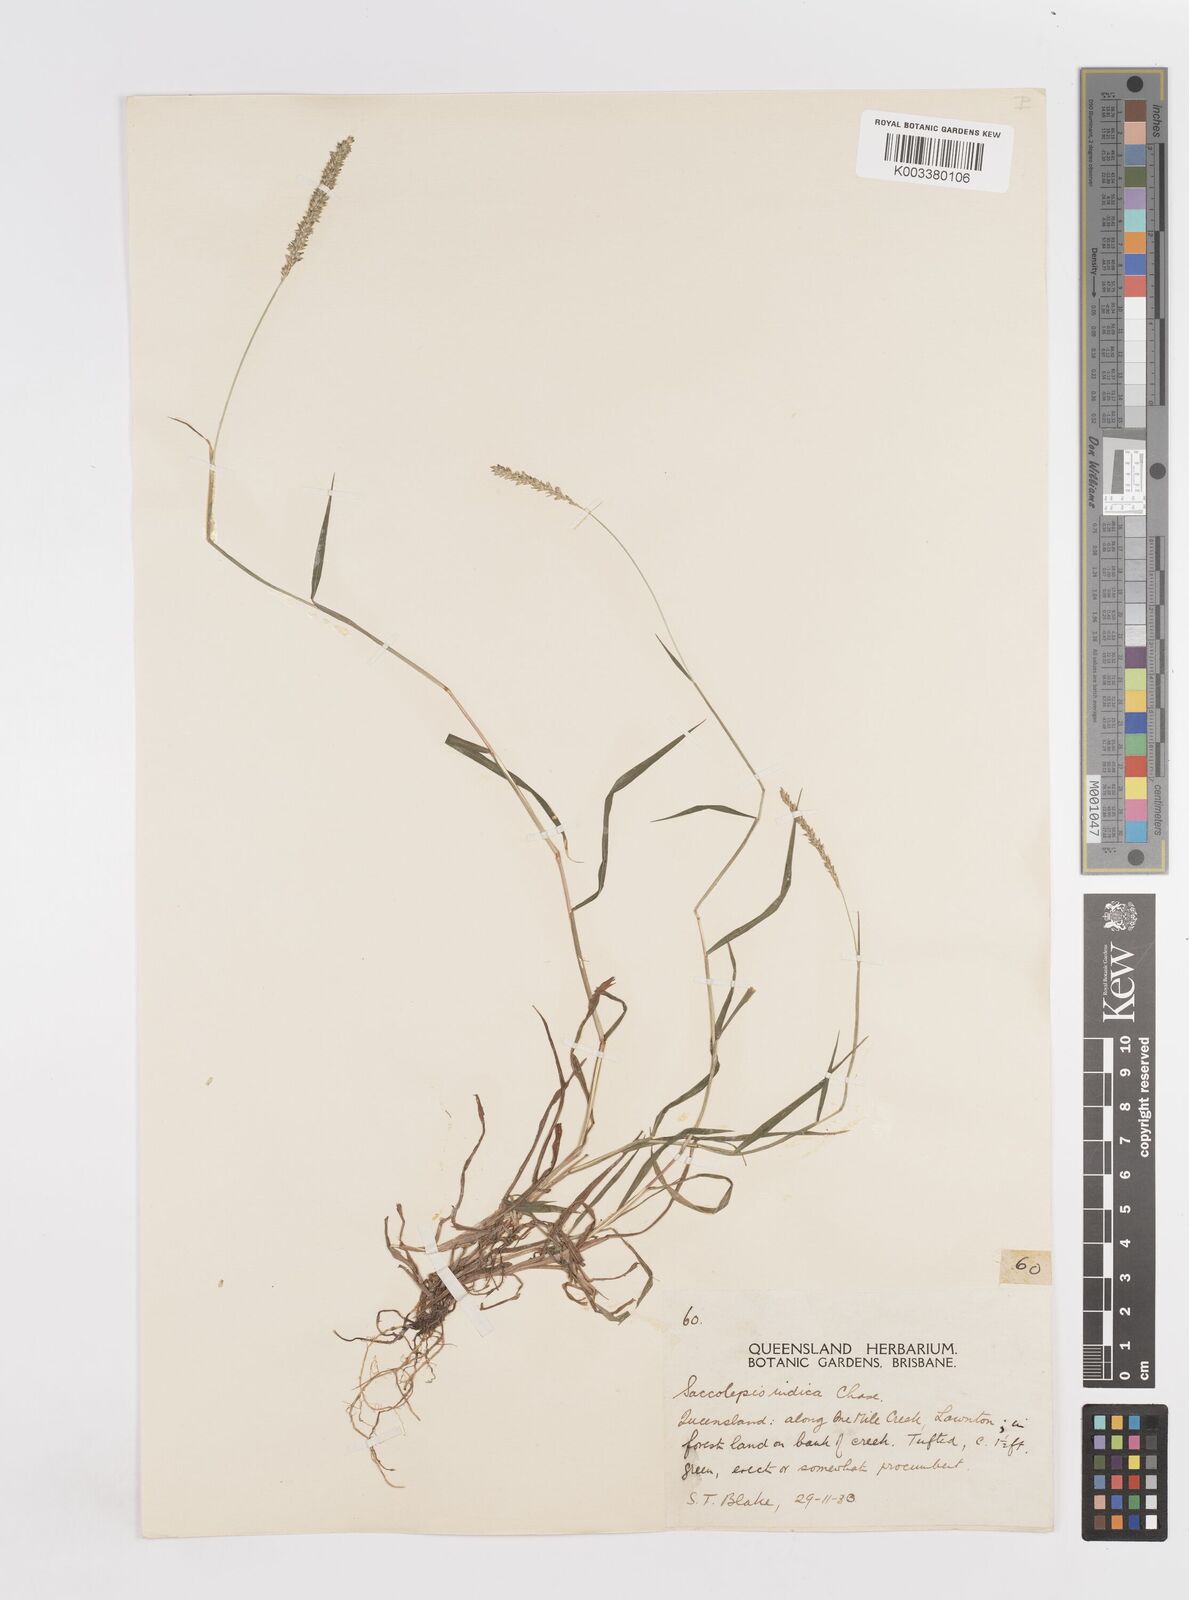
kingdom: Plantae
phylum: Tracheophyta
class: Liliopsida
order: Poales
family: Poaceae
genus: Sacciolepis
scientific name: Sacciolepis indica
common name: Glenwoodgrass
